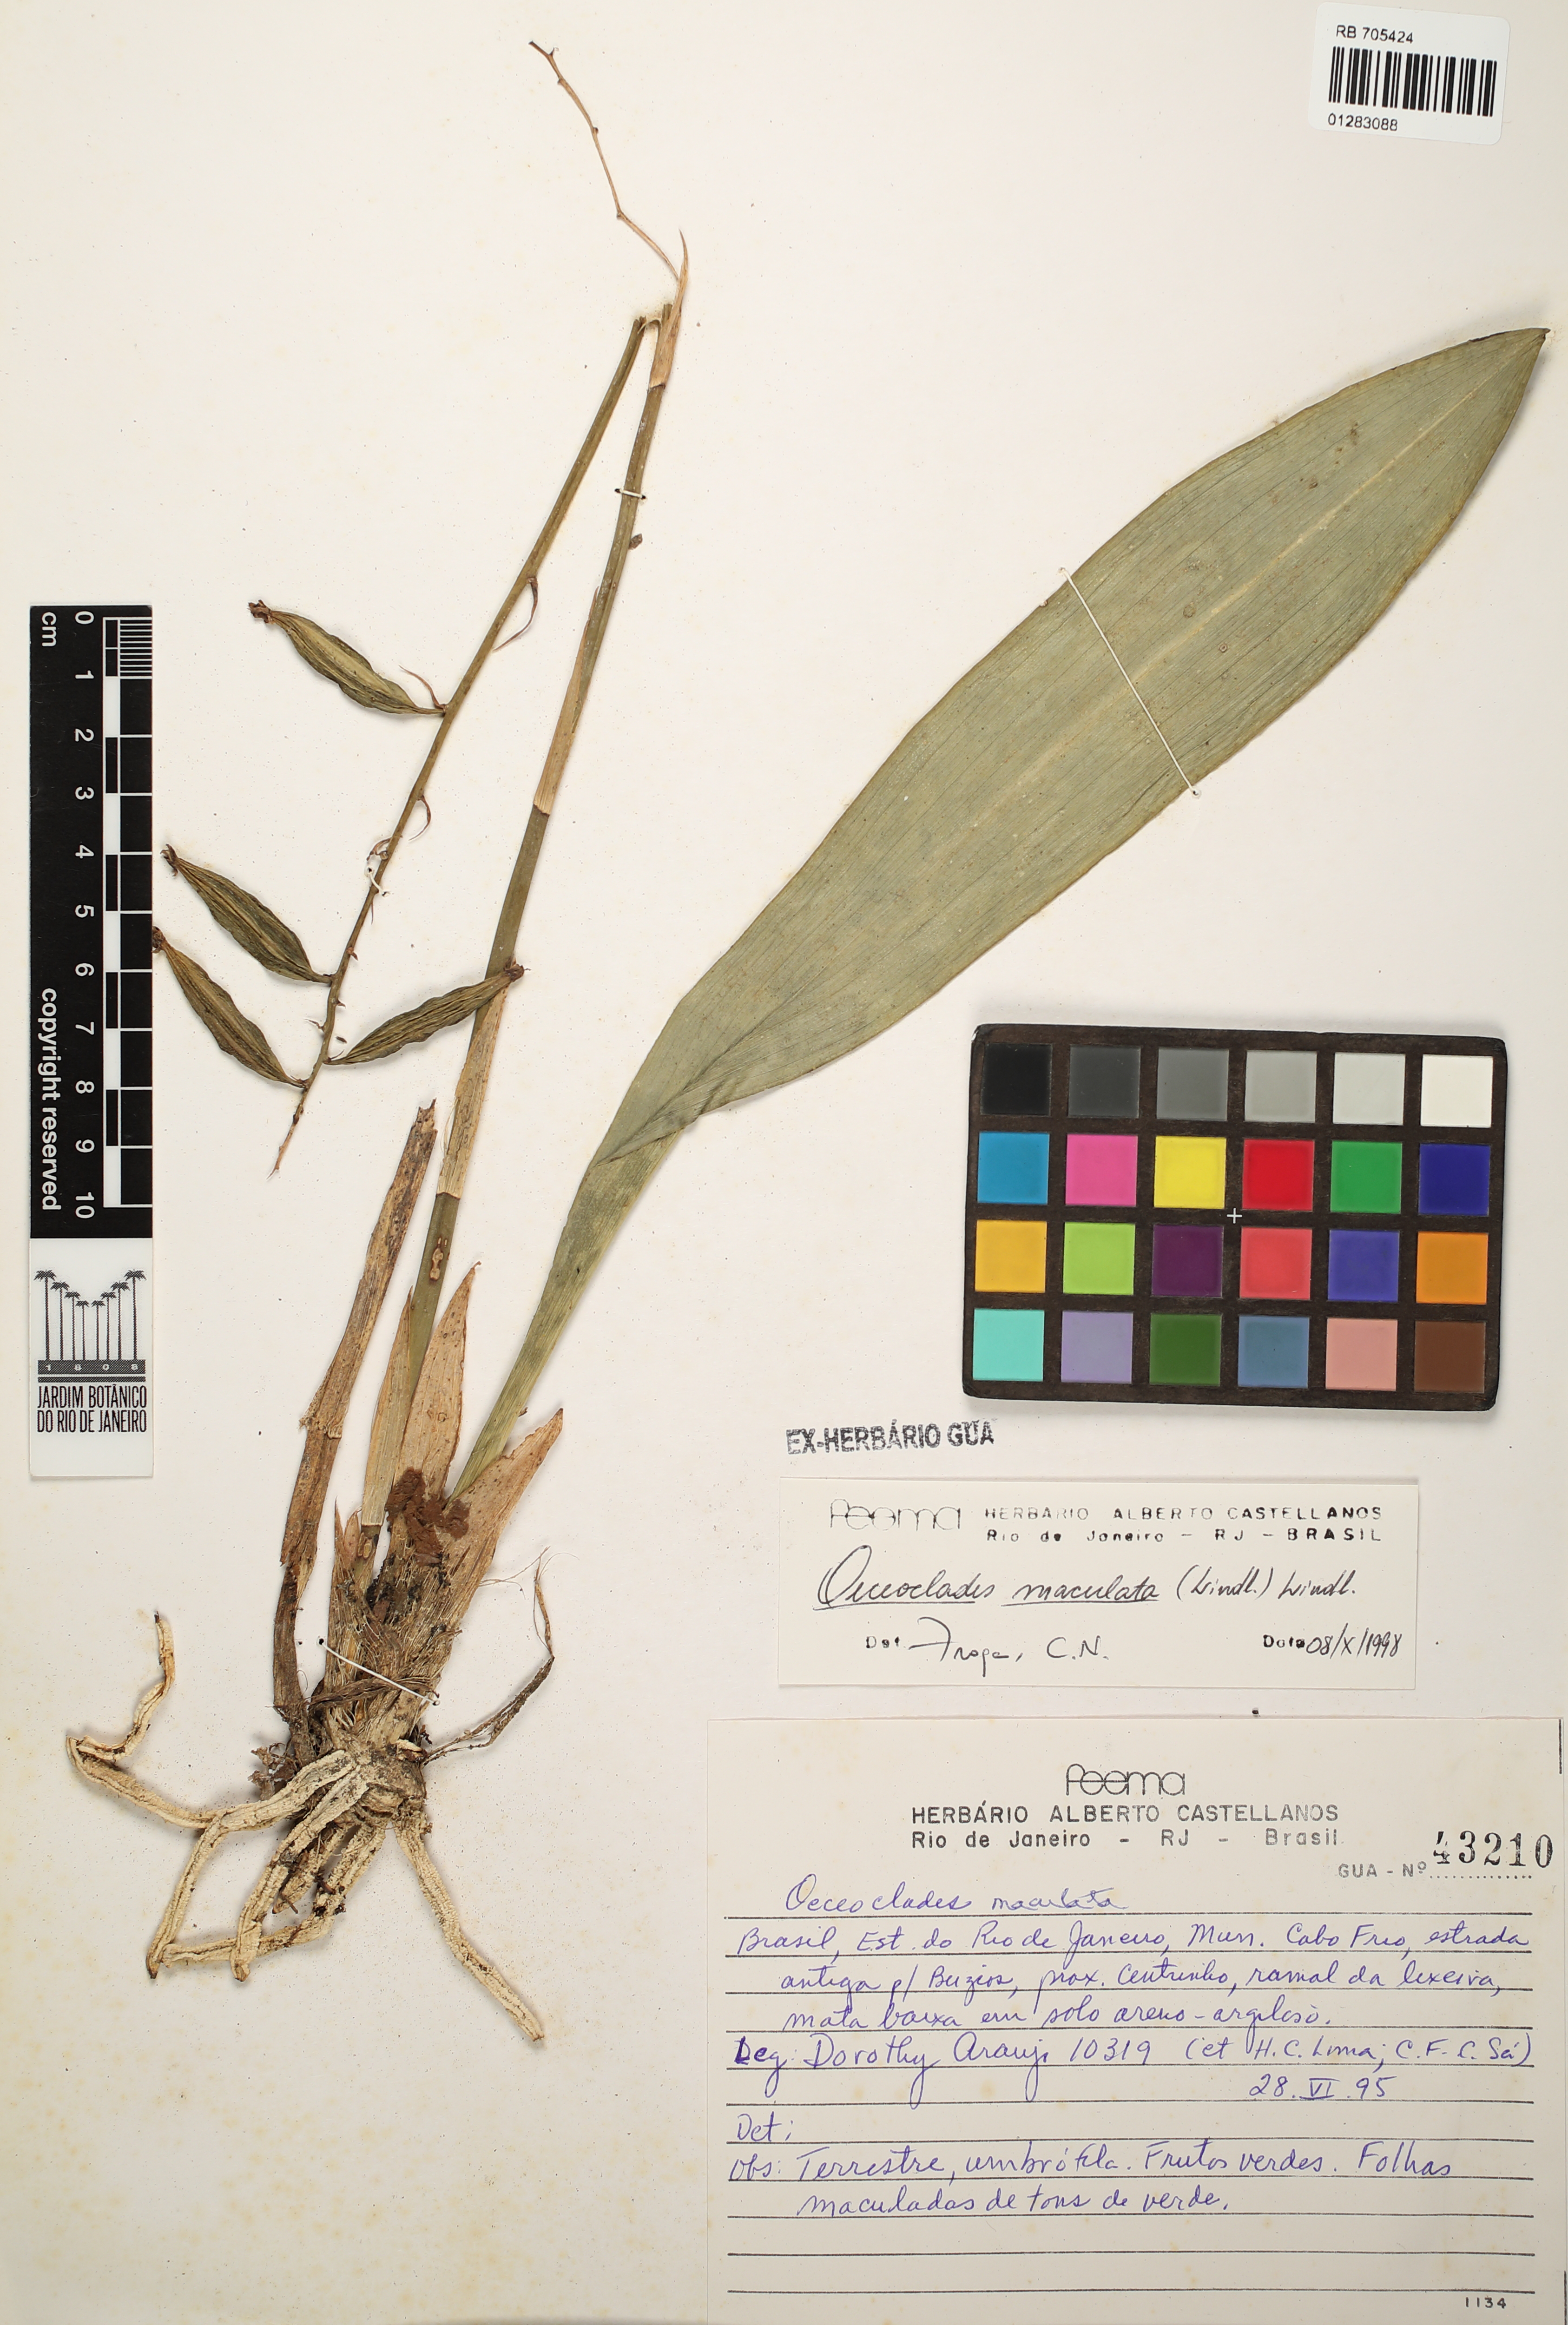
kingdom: Plantae
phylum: Tracheophyta
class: Liliopsida
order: Asparagales
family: Orchidaceae
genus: Eulophia
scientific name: Eulophia maculata
